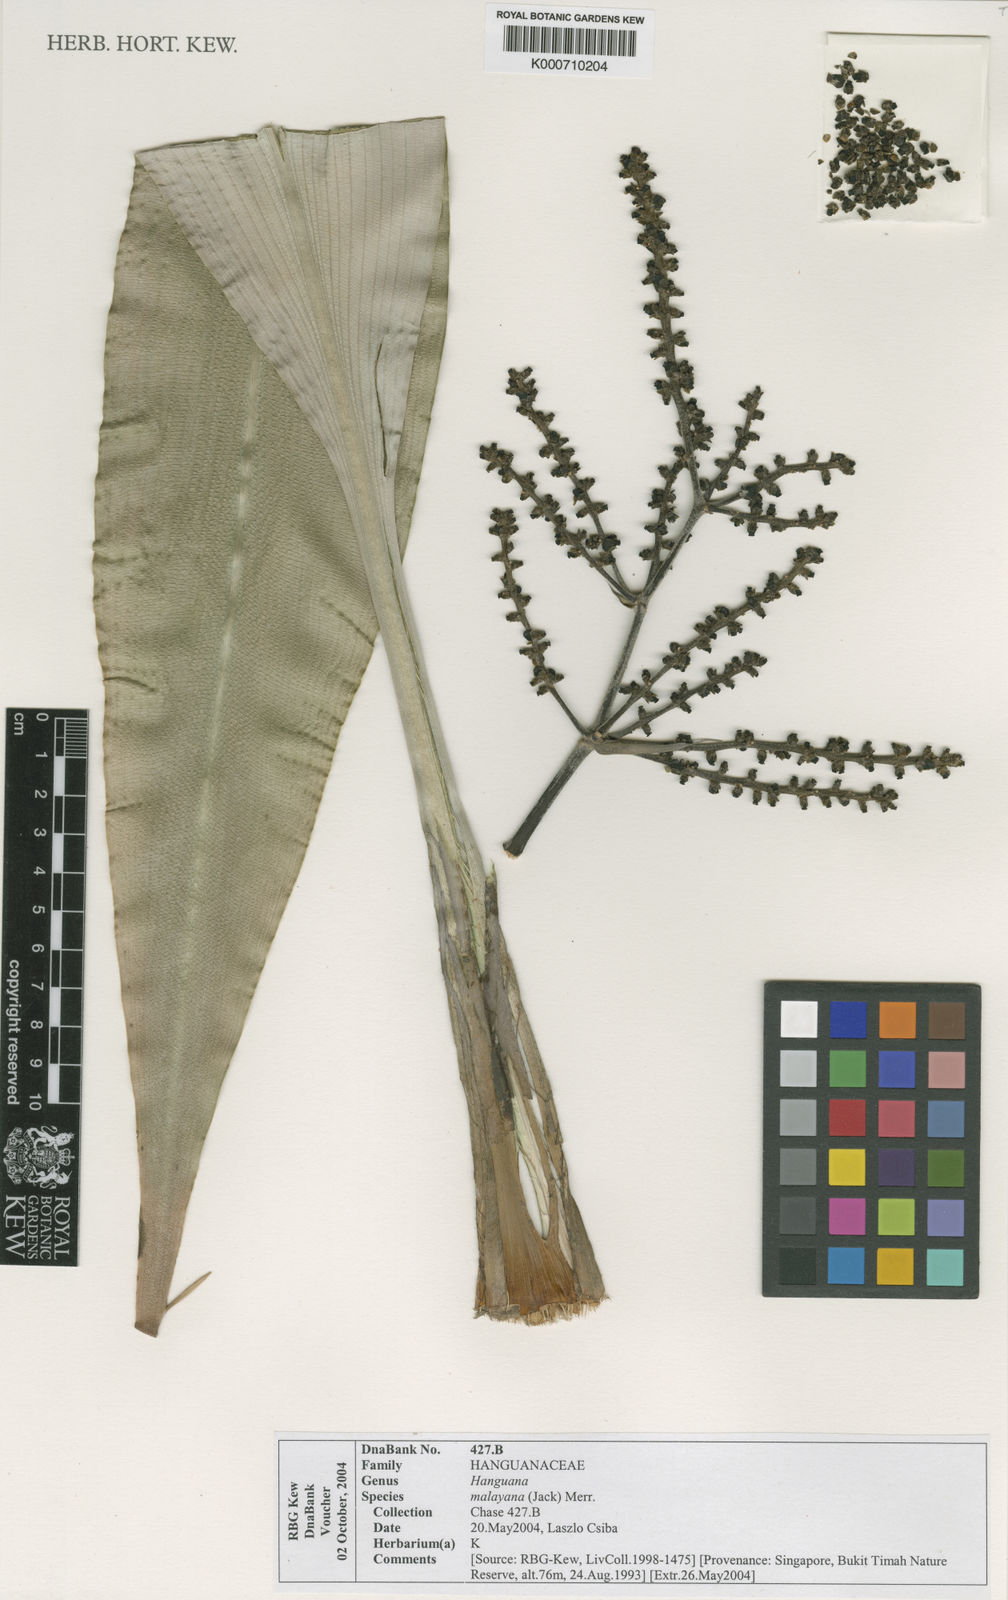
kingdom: Plantae
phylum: Tracheophyta
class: Liliopsida
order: Commelinales
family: Hanguanaceae
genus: Hanguana
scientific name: Hanguana malayana
